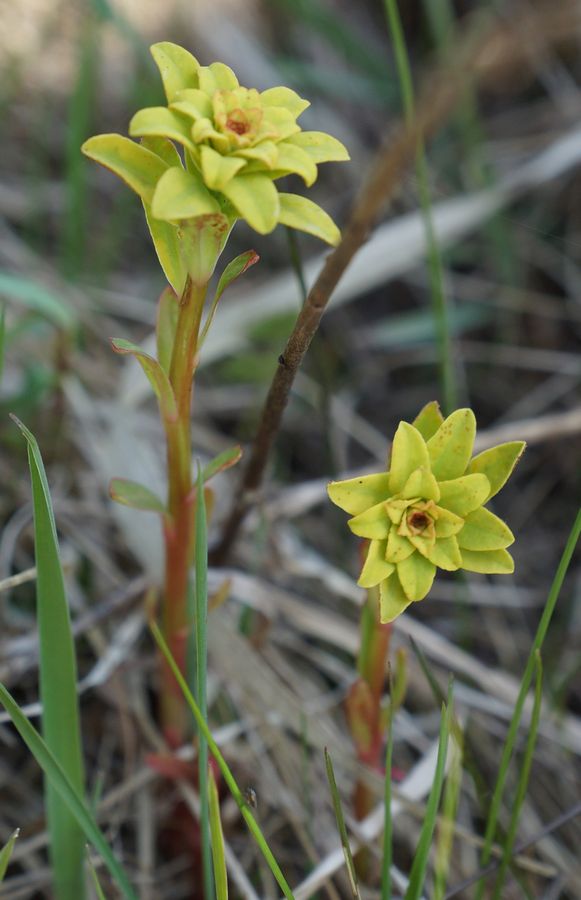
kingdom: Plantae
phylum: Tracheophyta
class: Magnoliopsida
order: Malpighiales
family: Euphorbiaceae
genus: Euphorbia
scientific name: Euphorbia
